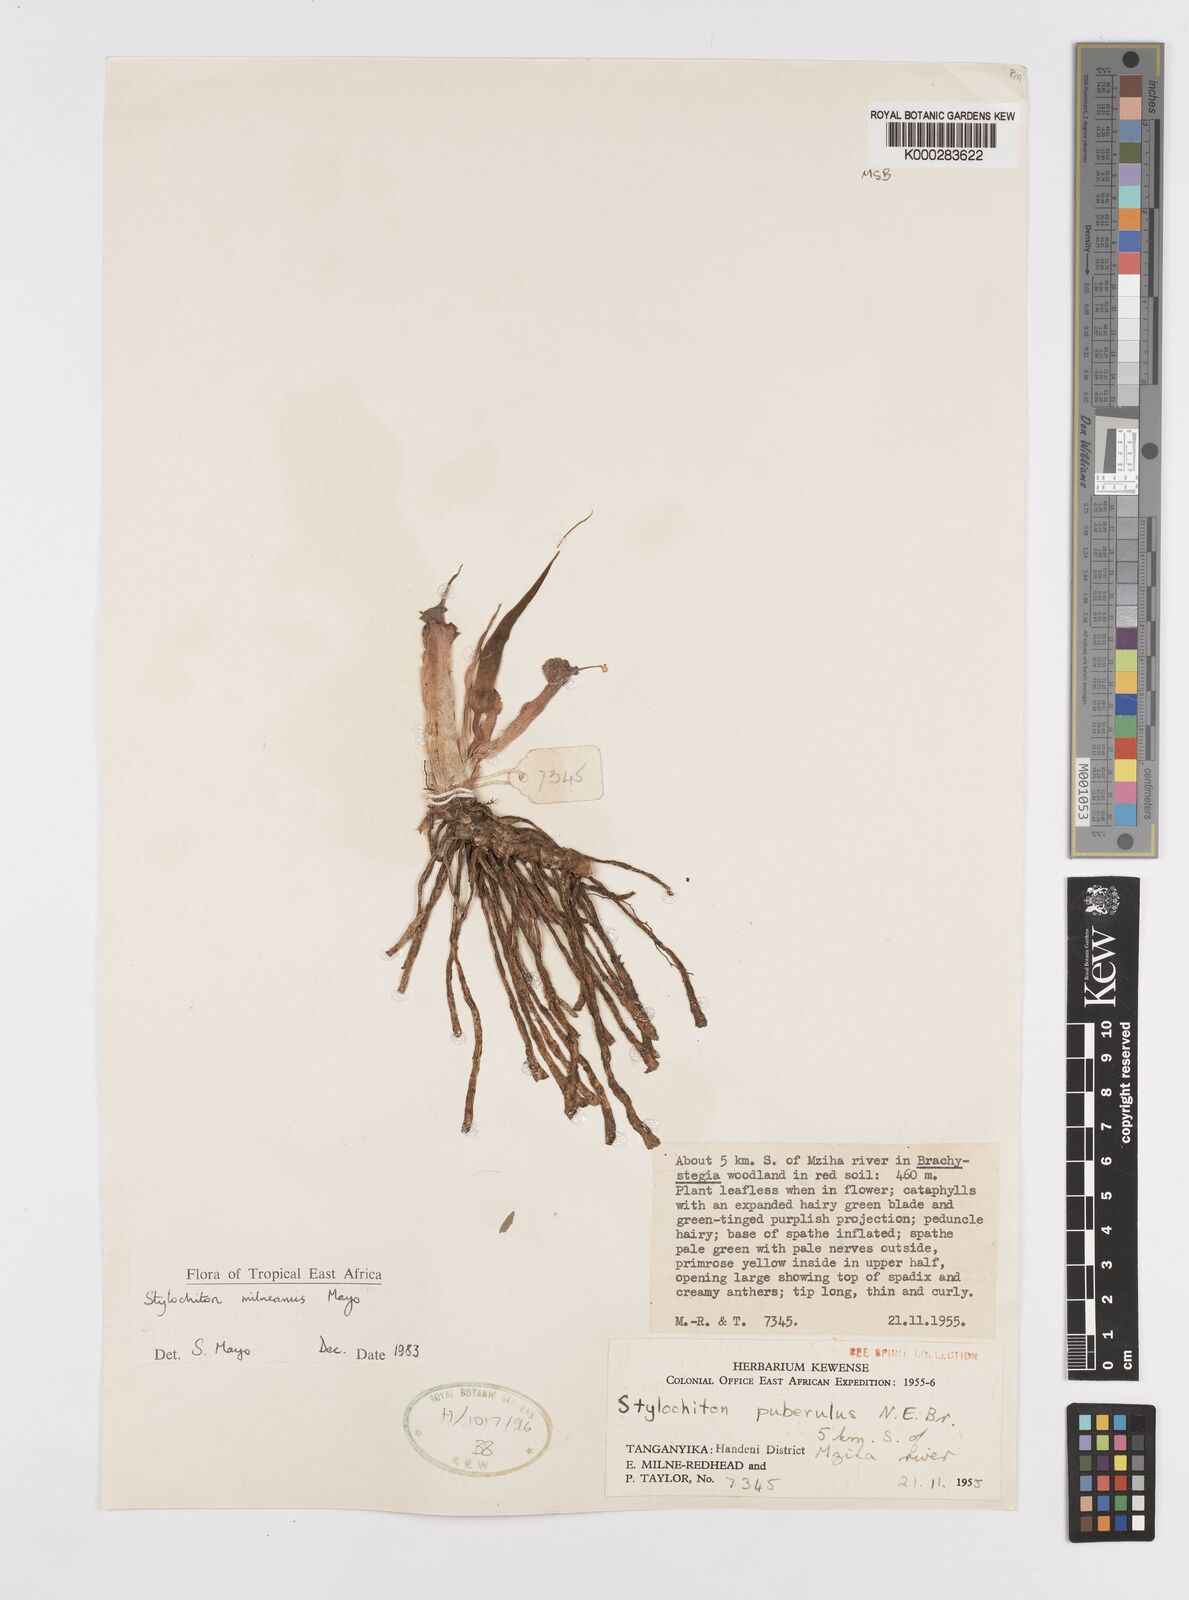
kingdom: Plantae
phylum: Tracheophyta
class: Liliopsida
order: Alismatales
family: Araceae
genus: Stylochaeton
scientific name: Stylochaeton milneanum
